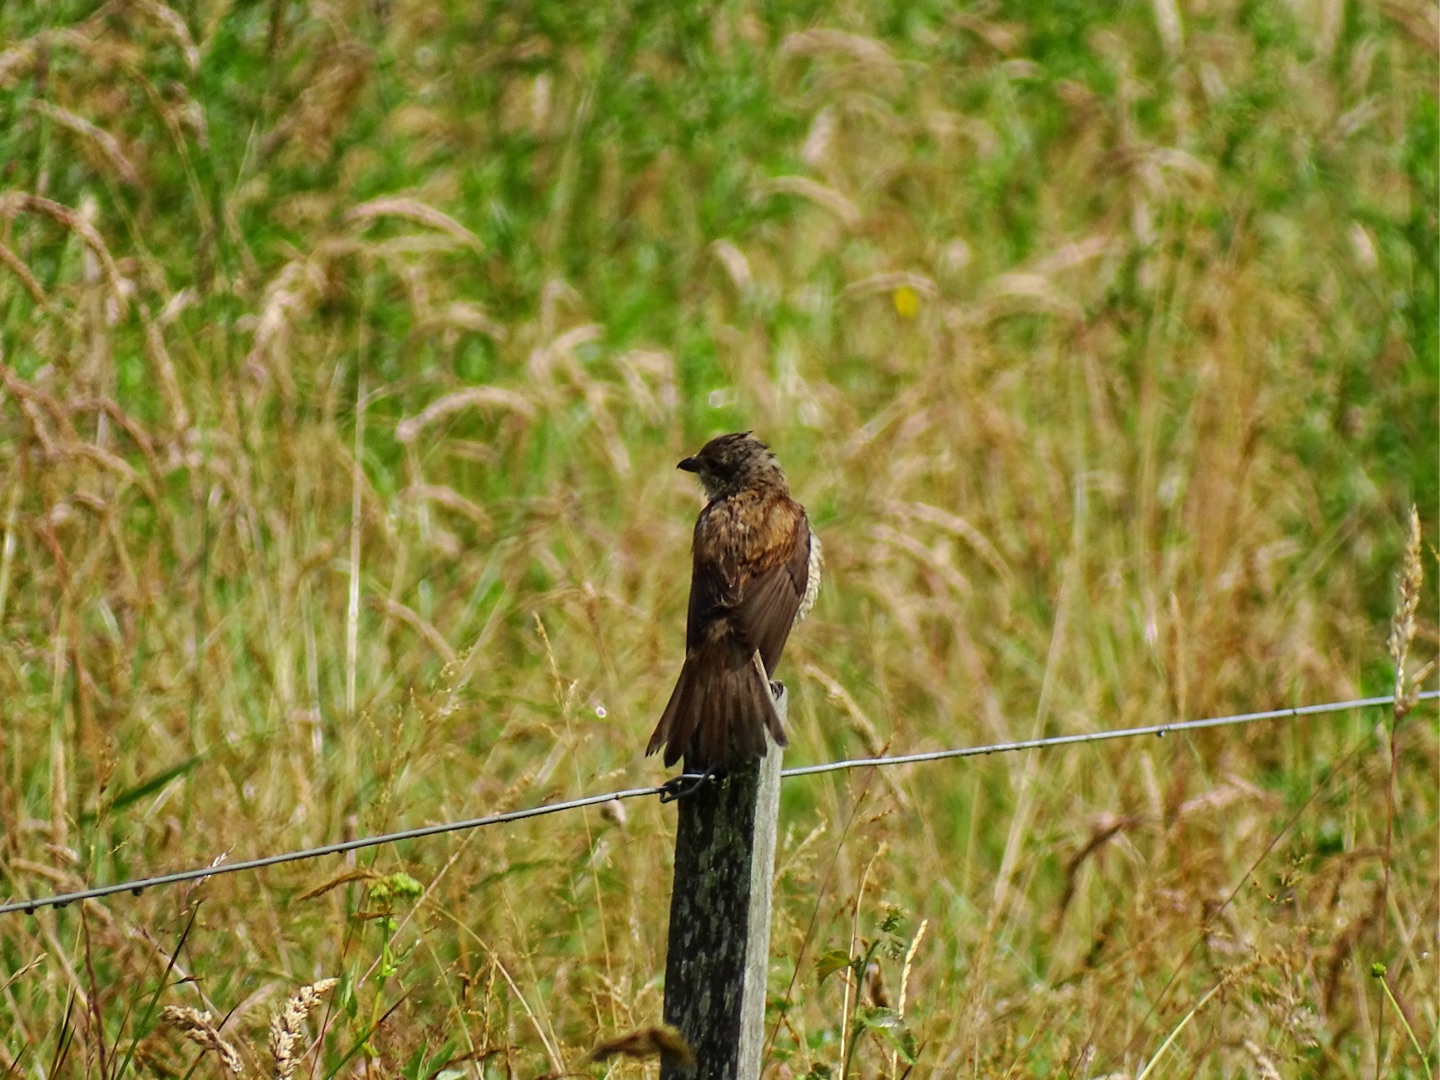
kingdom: Animalia
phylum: Chordata
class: Aves
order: Passeriformes
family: Laniidae
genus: Lanius
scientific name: Lanius collurio
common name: Rødrygget tornskade
